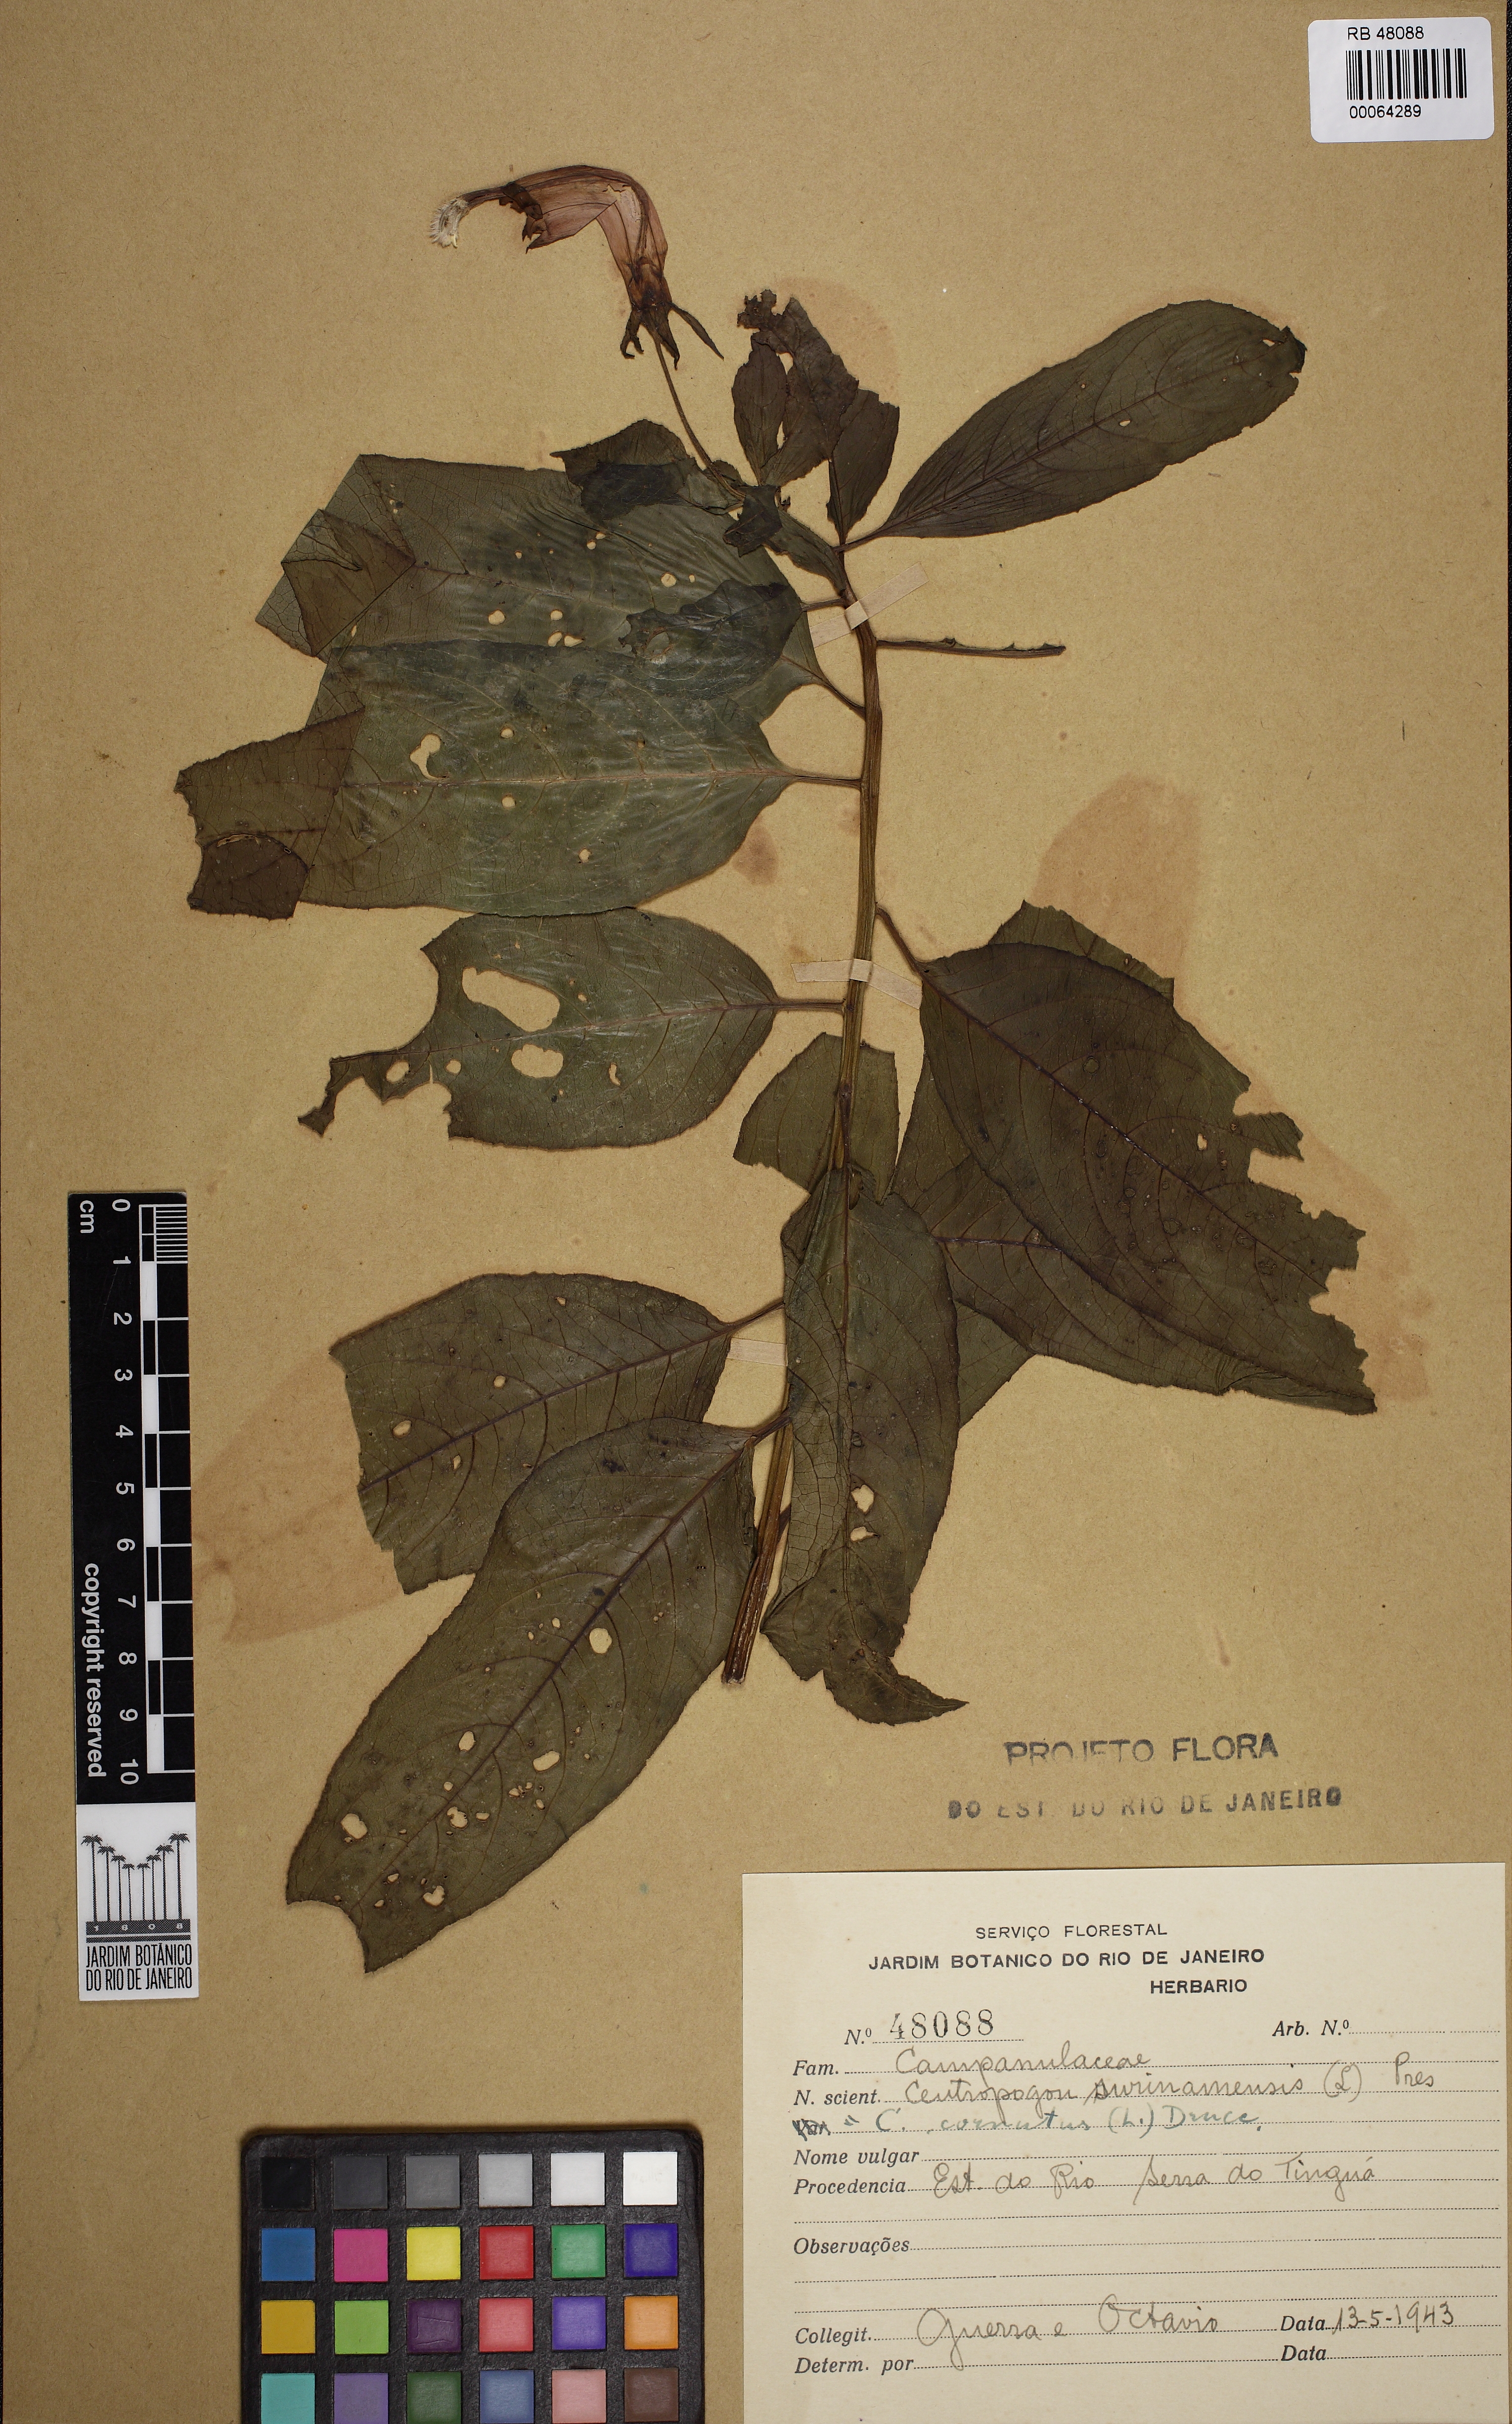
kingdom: Plantae
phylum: Tracheophyta
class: Magnoliopsida
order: Asterales
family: Campanulaceae
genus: Centropogon
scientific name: Centropogon cornutus
